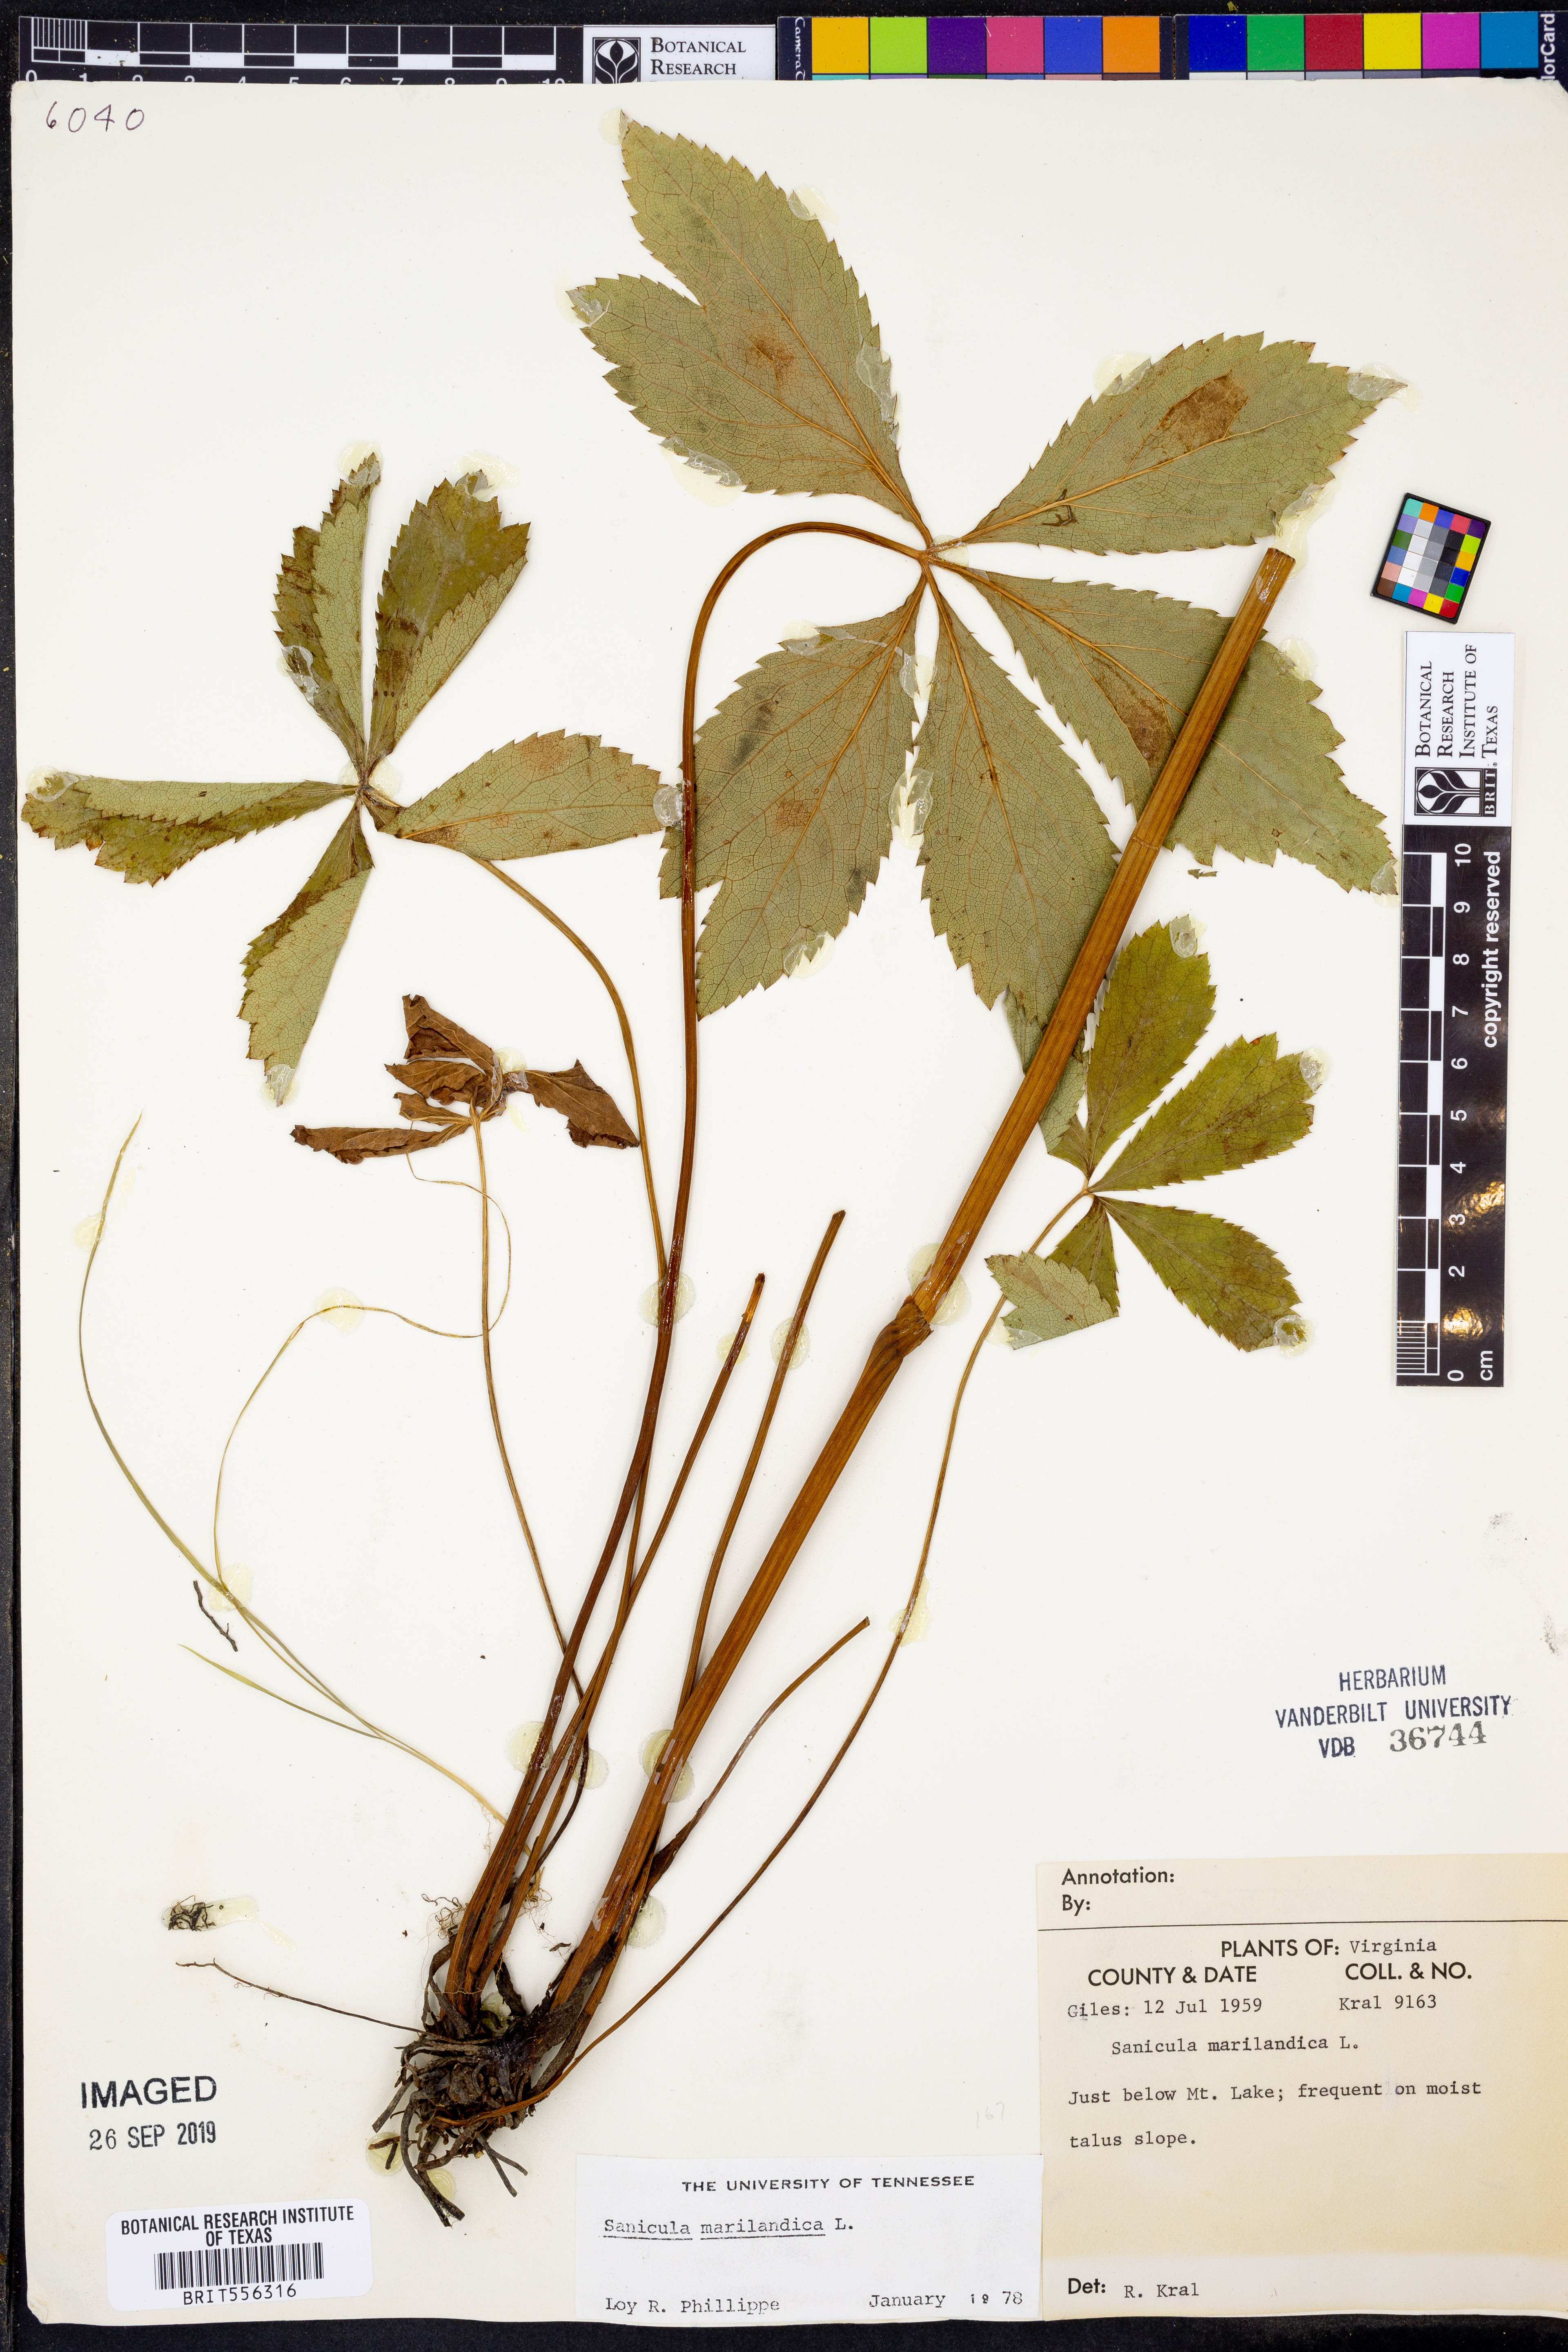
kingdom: Plantae
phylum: Tracheophyta
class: Magnoliopsida
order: Apiales
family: Apiaceae
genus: Sanicula
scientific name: Sanicula marilandica
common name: Black snakeroot
